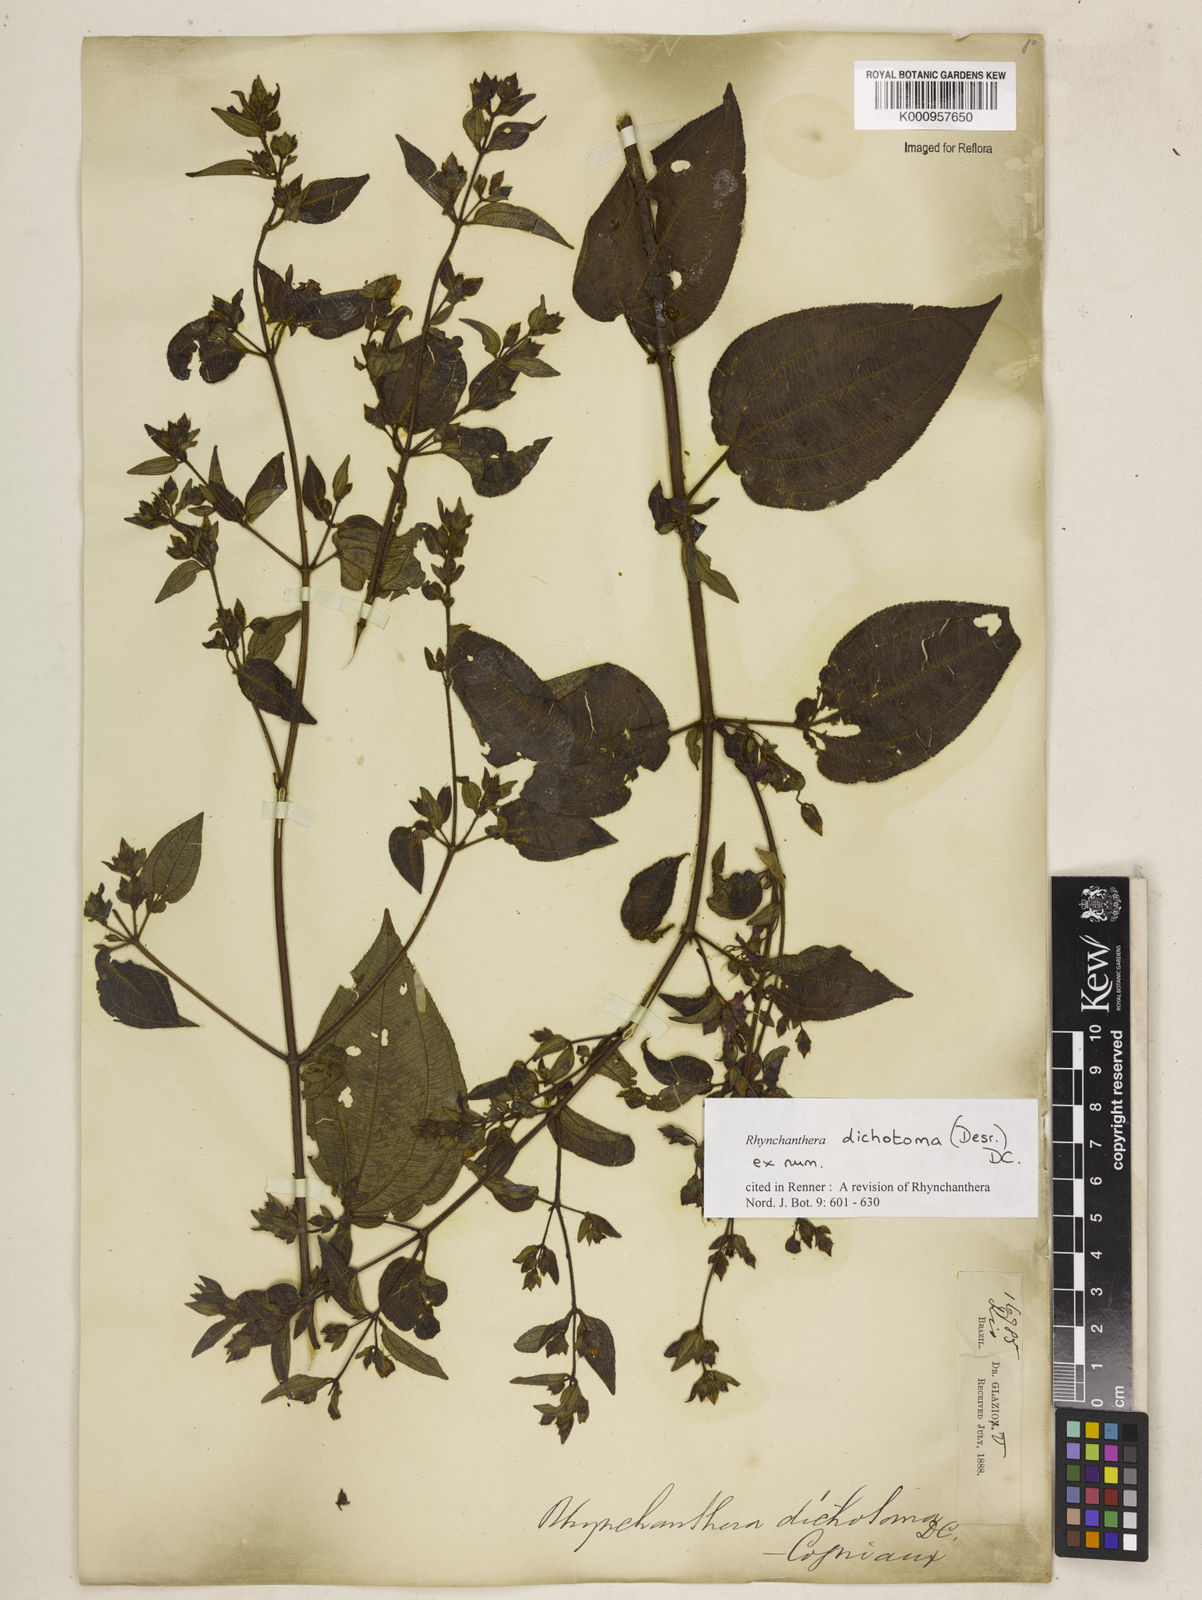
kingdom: Plantae
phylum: Tracheophyta
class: Magnoliopsida
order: Myrtales
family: Melastomataceae
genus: Rhynchanthera
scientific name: Rhynchanthera dichotoma
